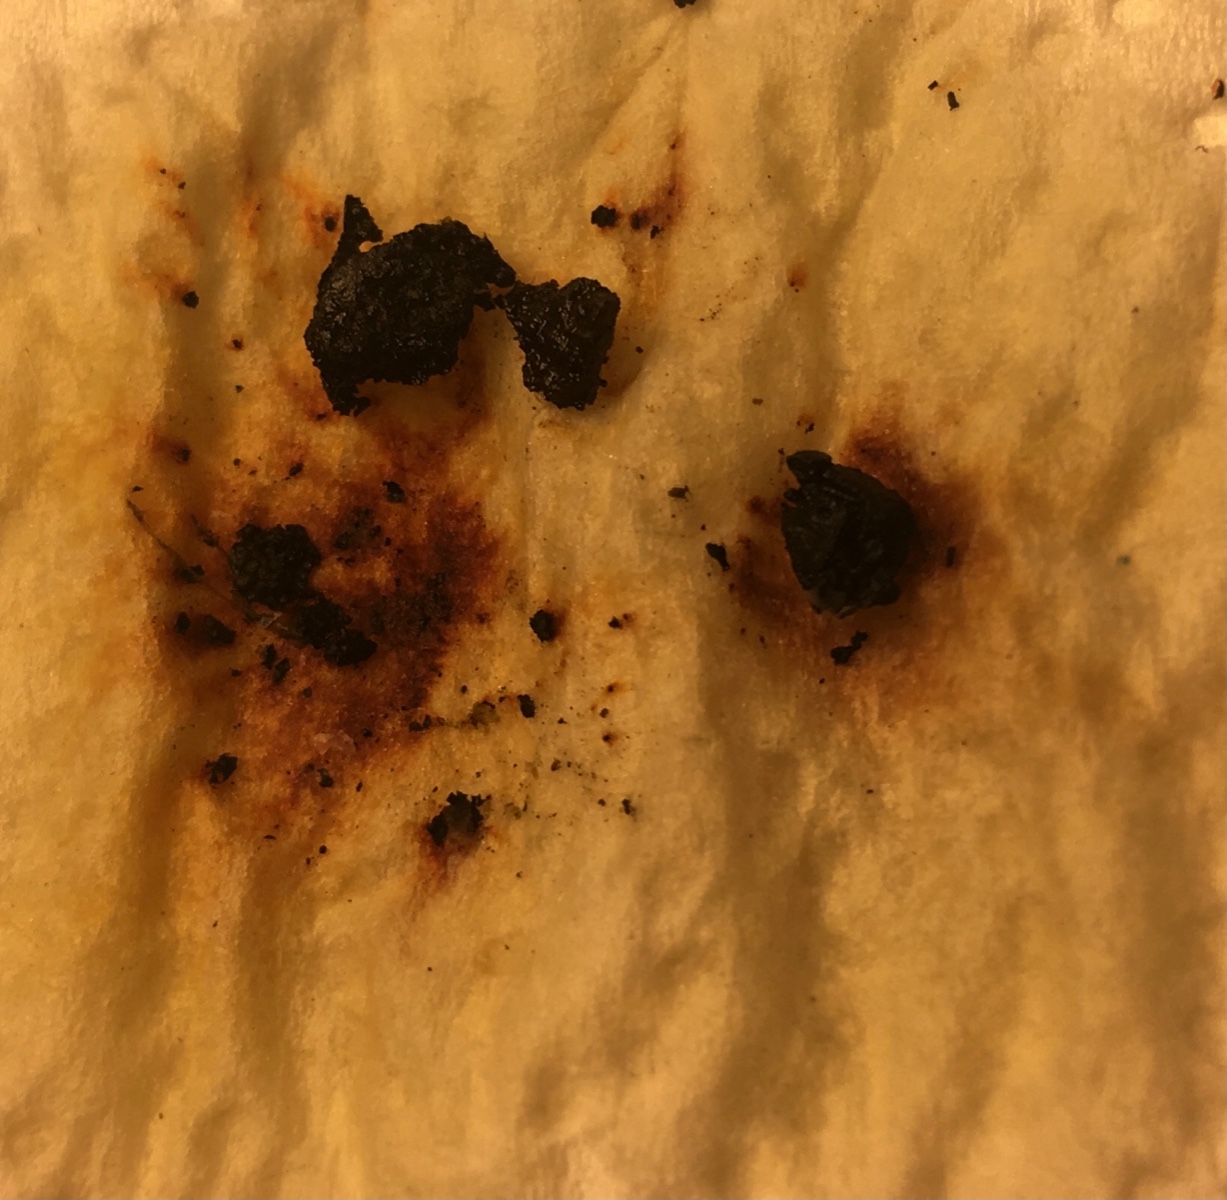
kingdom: Fungi
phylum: Ascomycota
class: Sordariomycetes
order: Xylariales
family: Hypoxylaceae
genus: Hypoxylon
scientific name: Hypoxylon fragiforme
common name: kuljordbær
